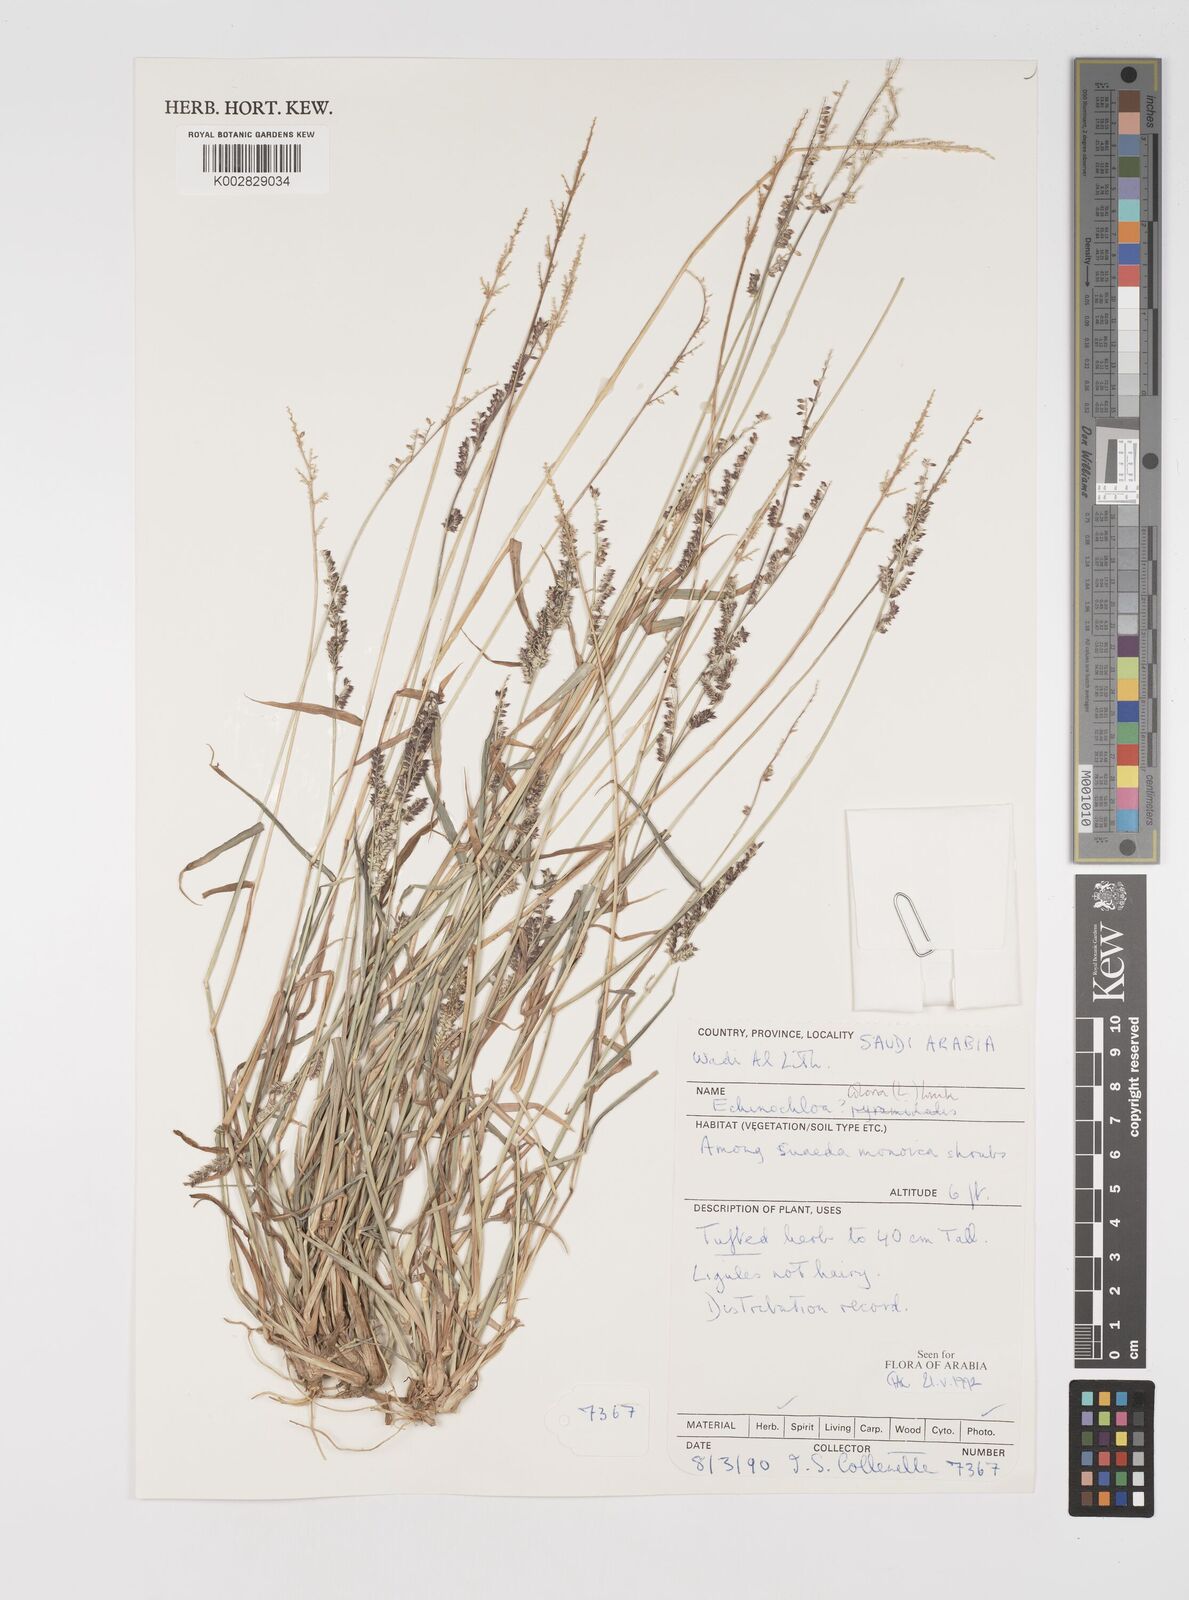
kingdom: Plantae
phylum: Tracheophyta
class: Liliopsida
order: Poales
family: Poaceae
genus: Echinochloa
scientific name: Echinochloa colonum
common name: Jungle rice
